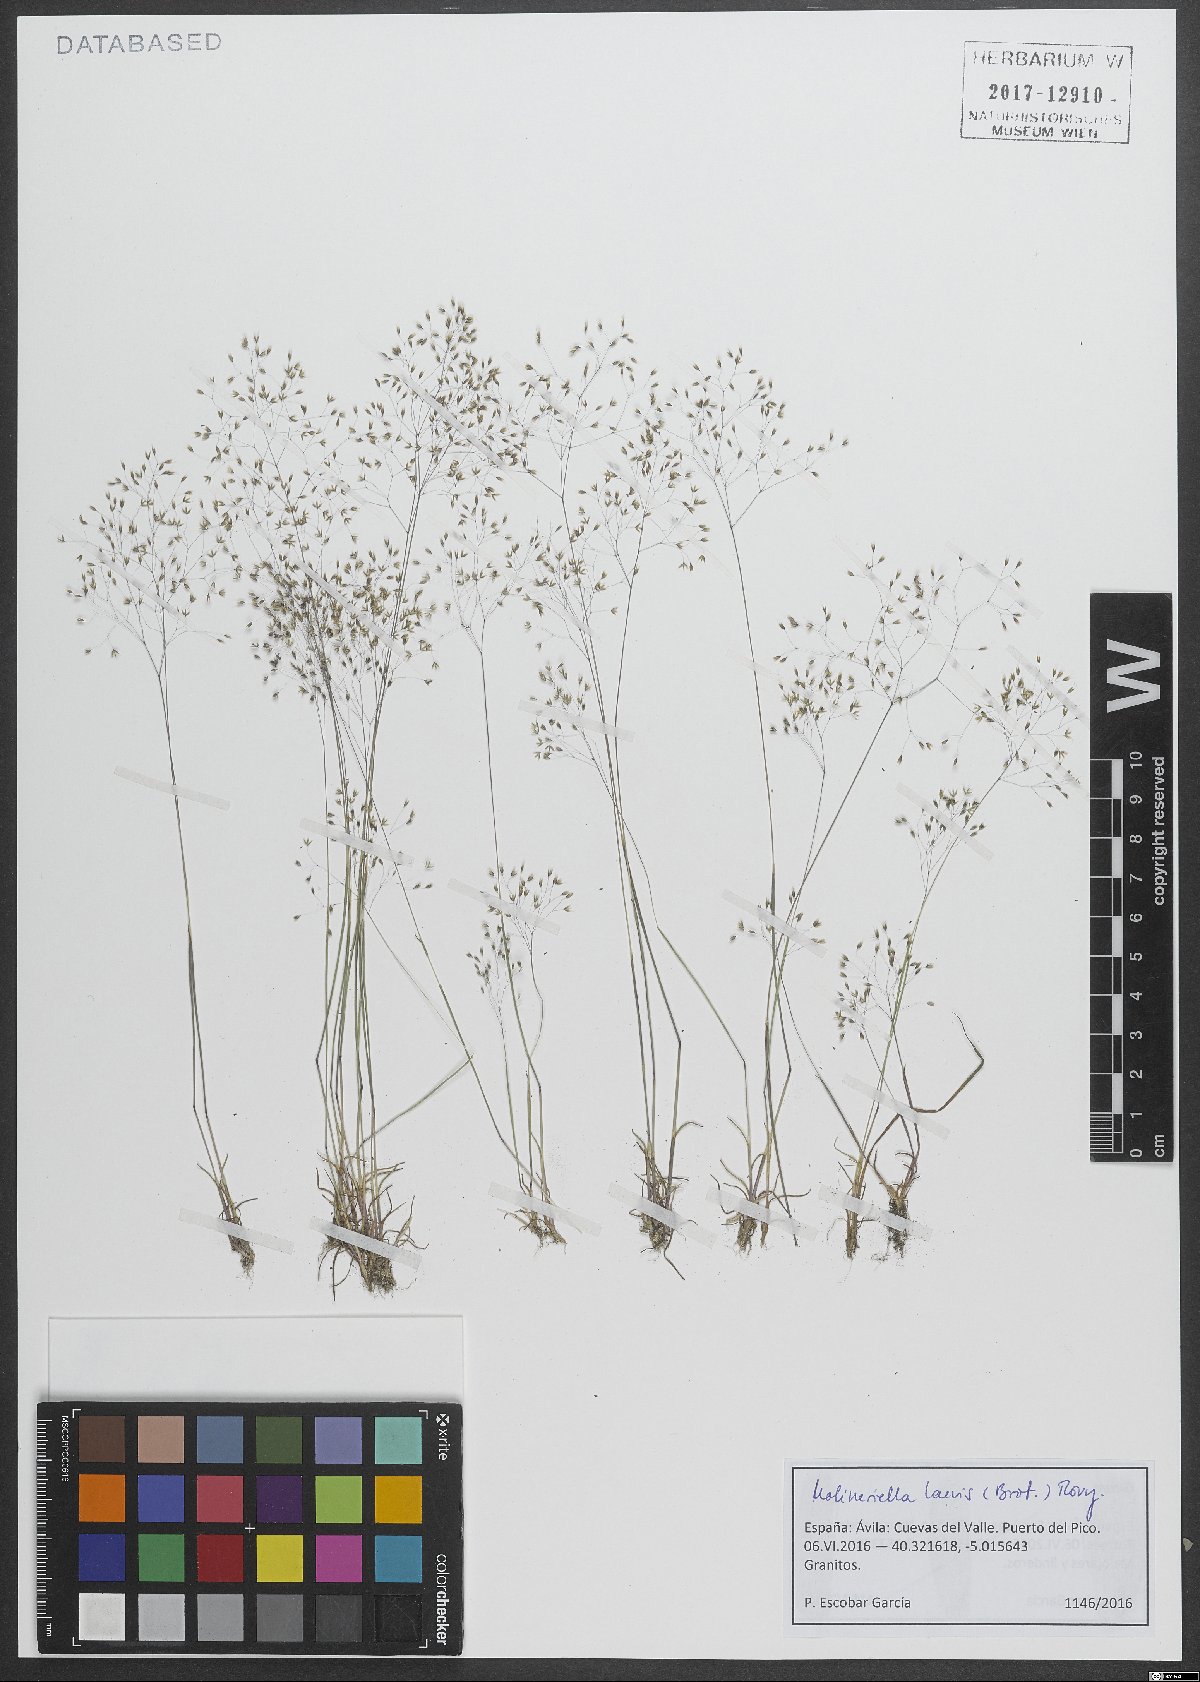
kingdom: Plantae
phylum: Tracheophyta
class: Liliopsida
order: Poales
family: Poaceae
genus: Molineriella
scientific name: Molineriella laevis
